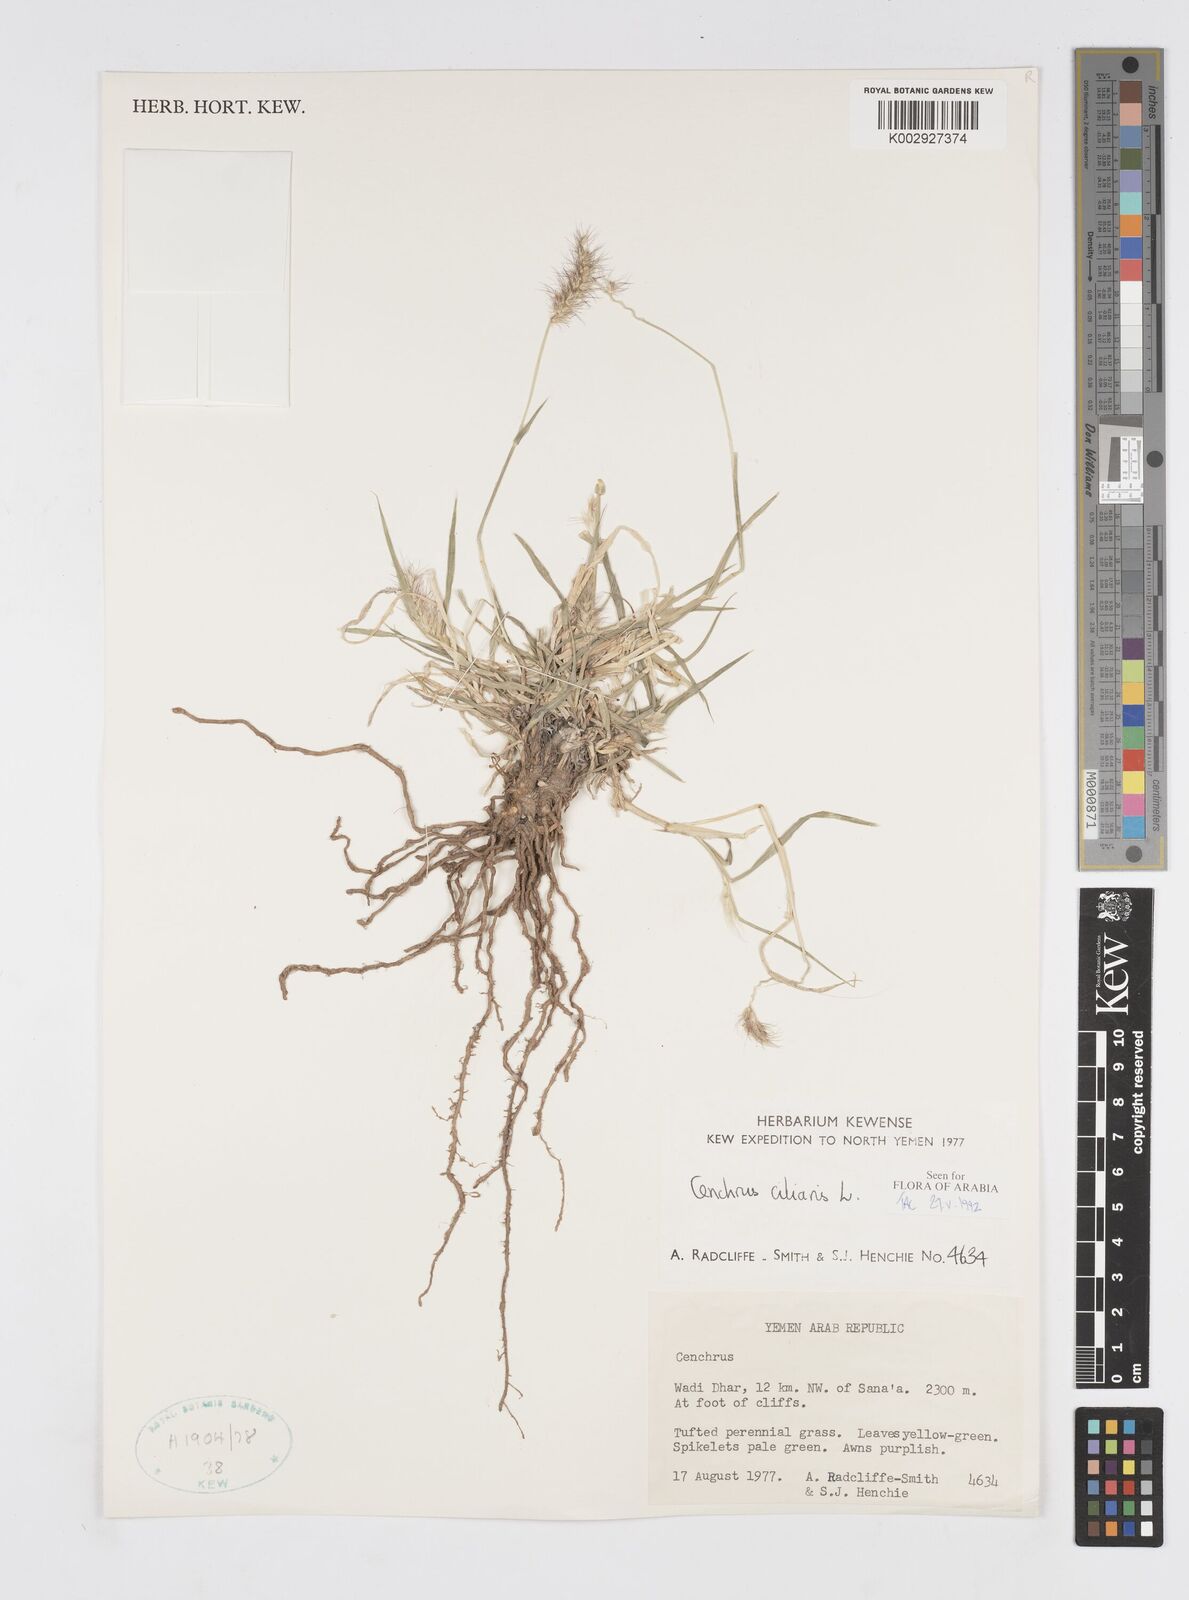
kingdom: Plantae
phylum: Tracheophyta
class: Liliopsida
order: Poales
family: Poaceae
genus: Cenchrus
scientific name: Cenchrus ciliaris
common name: Buffelgrass
